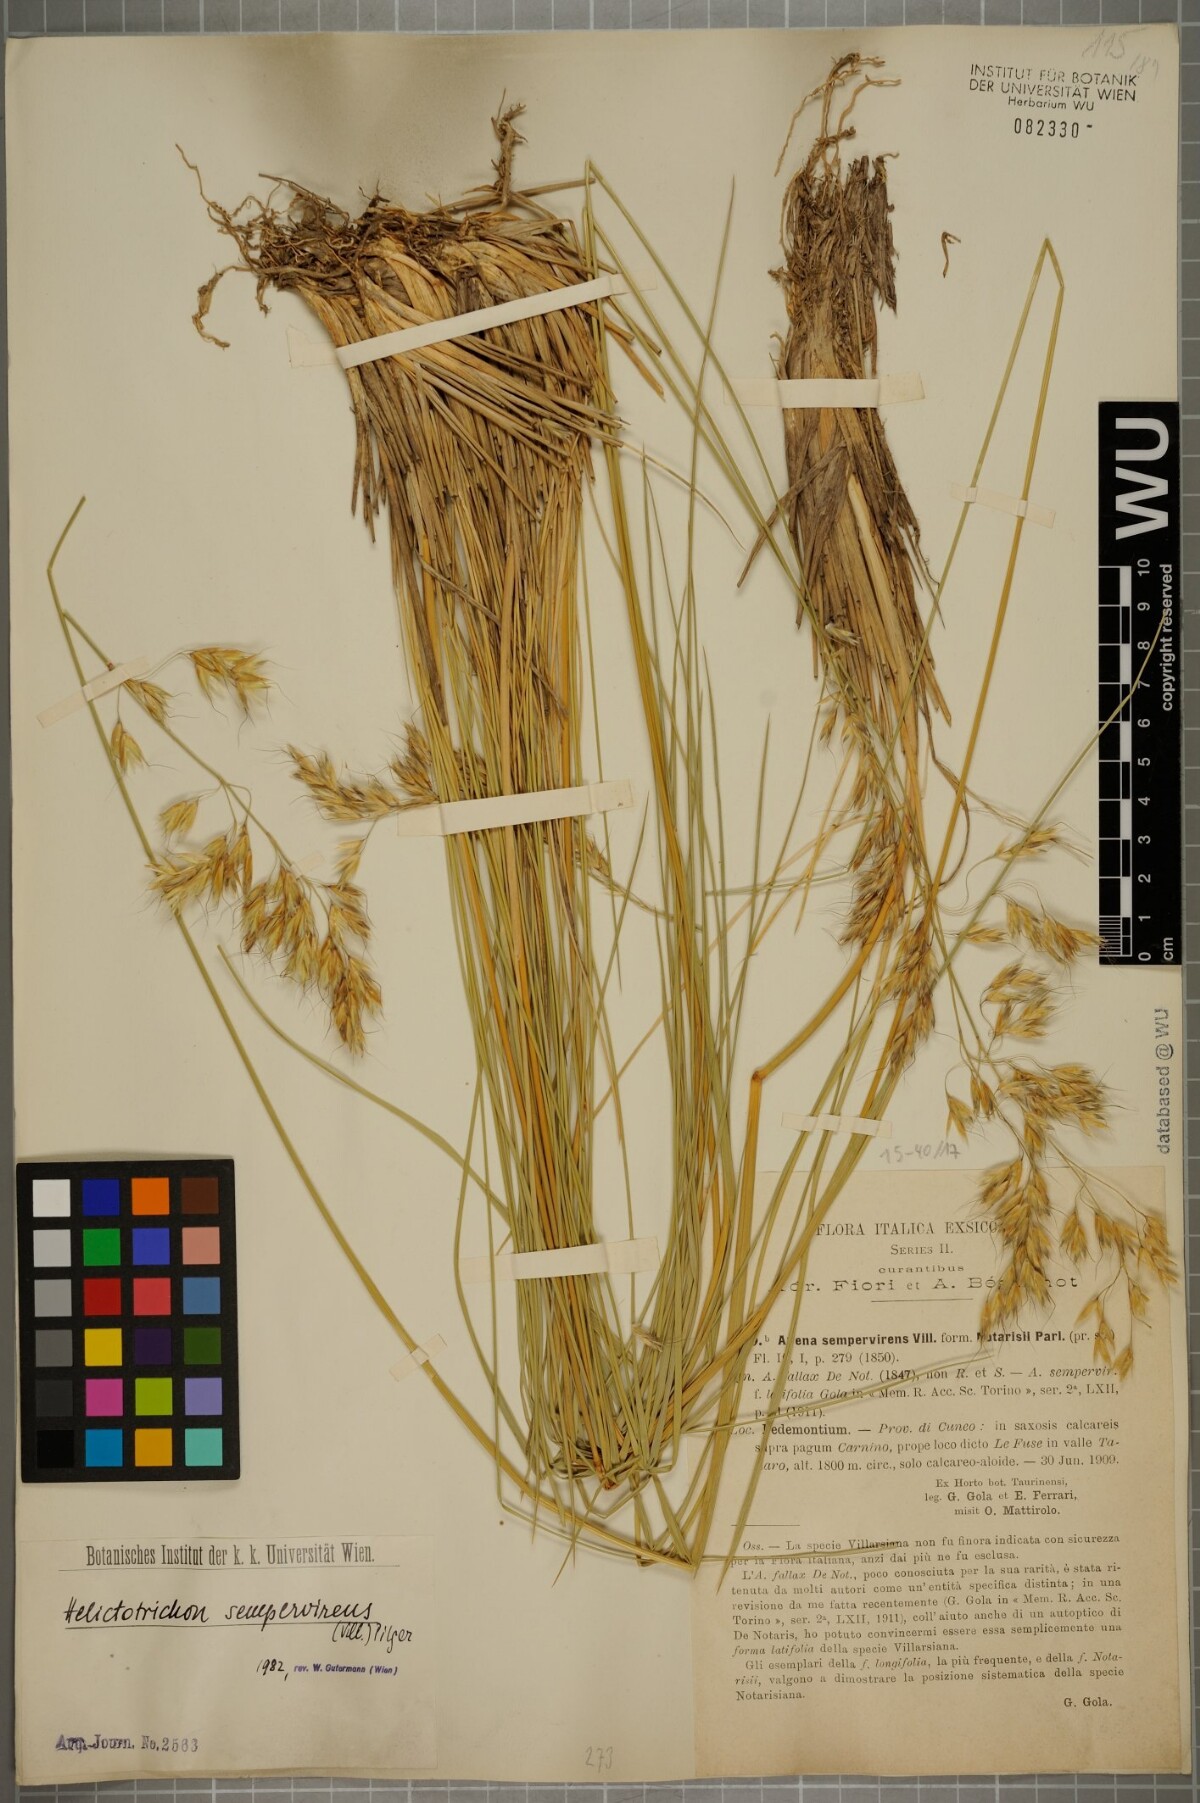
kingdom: Plantae
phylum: Tracheophyta
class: Liliopsida
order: Poales
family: Poaceae
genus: Helictotrichon
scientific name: Helictotrichon sempervirens
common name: Blue oat-grass
